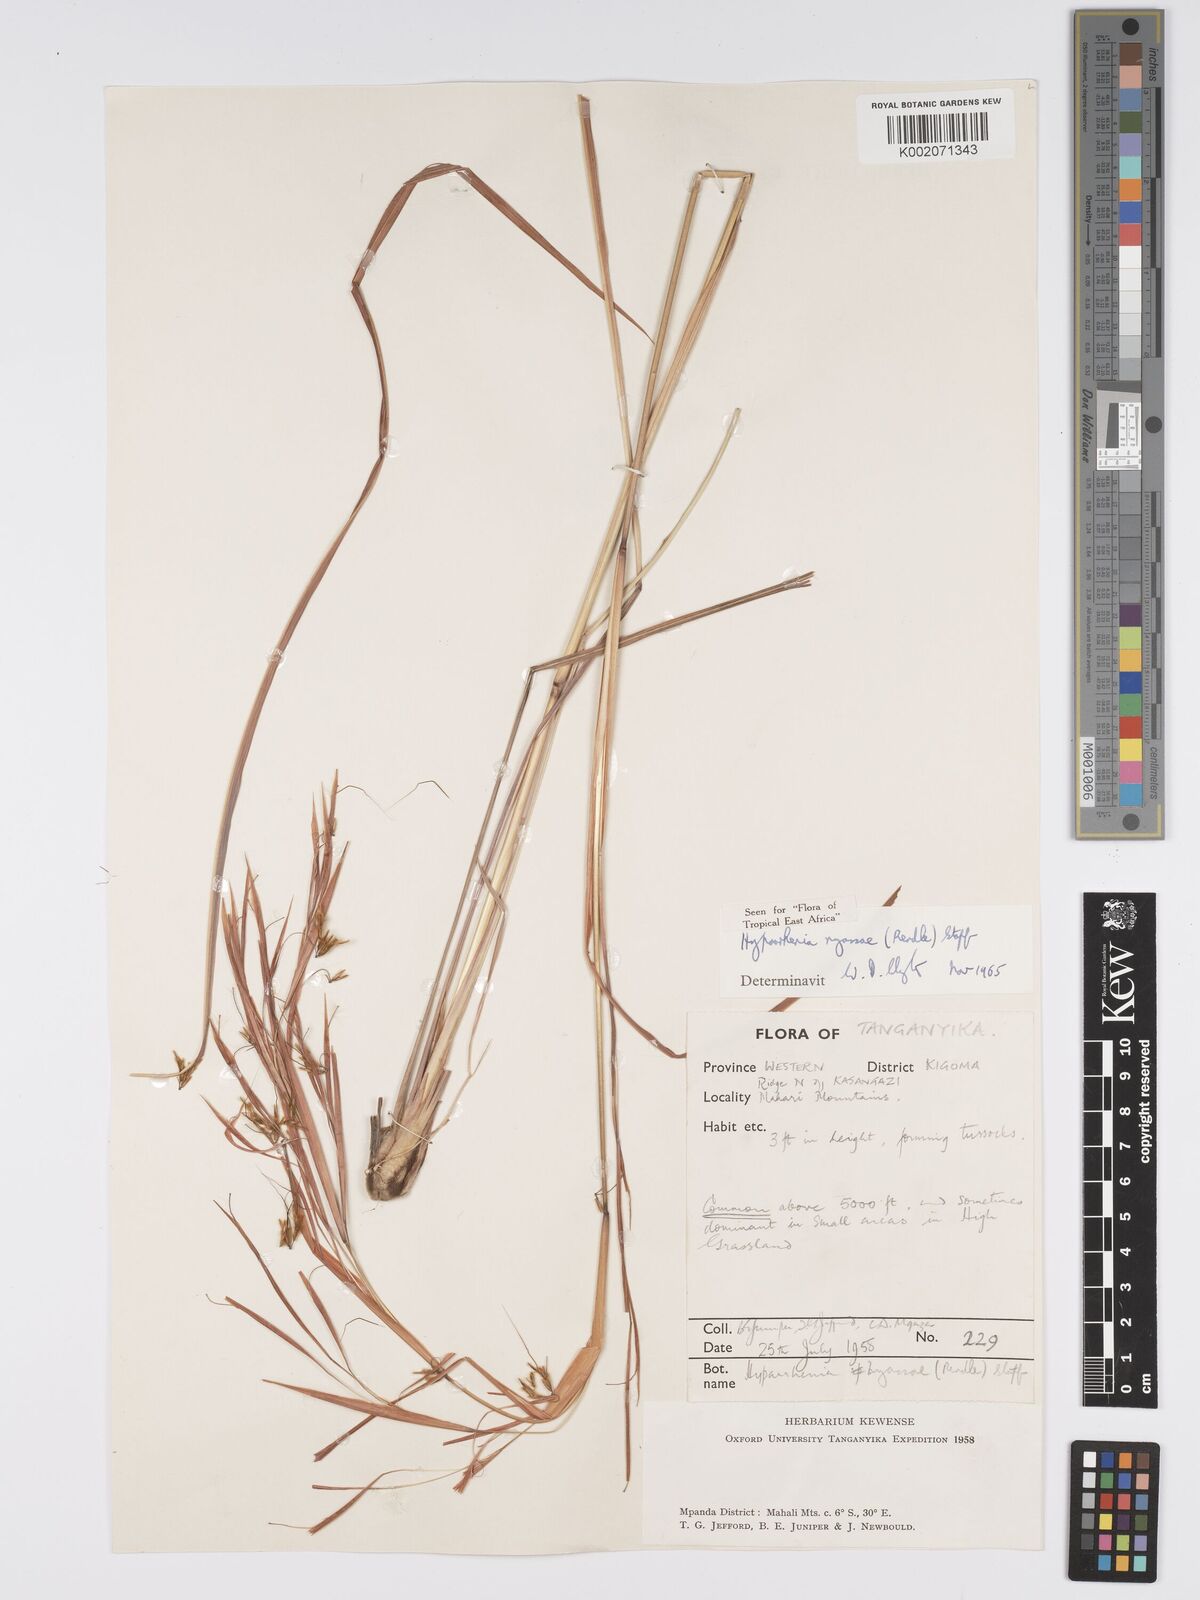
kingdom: Plantae
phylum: Tracheophyta
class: Liliopsida
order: Poales
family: Poaceae
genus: Hyparrhenia
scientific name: Hyparrhenia nyassae
